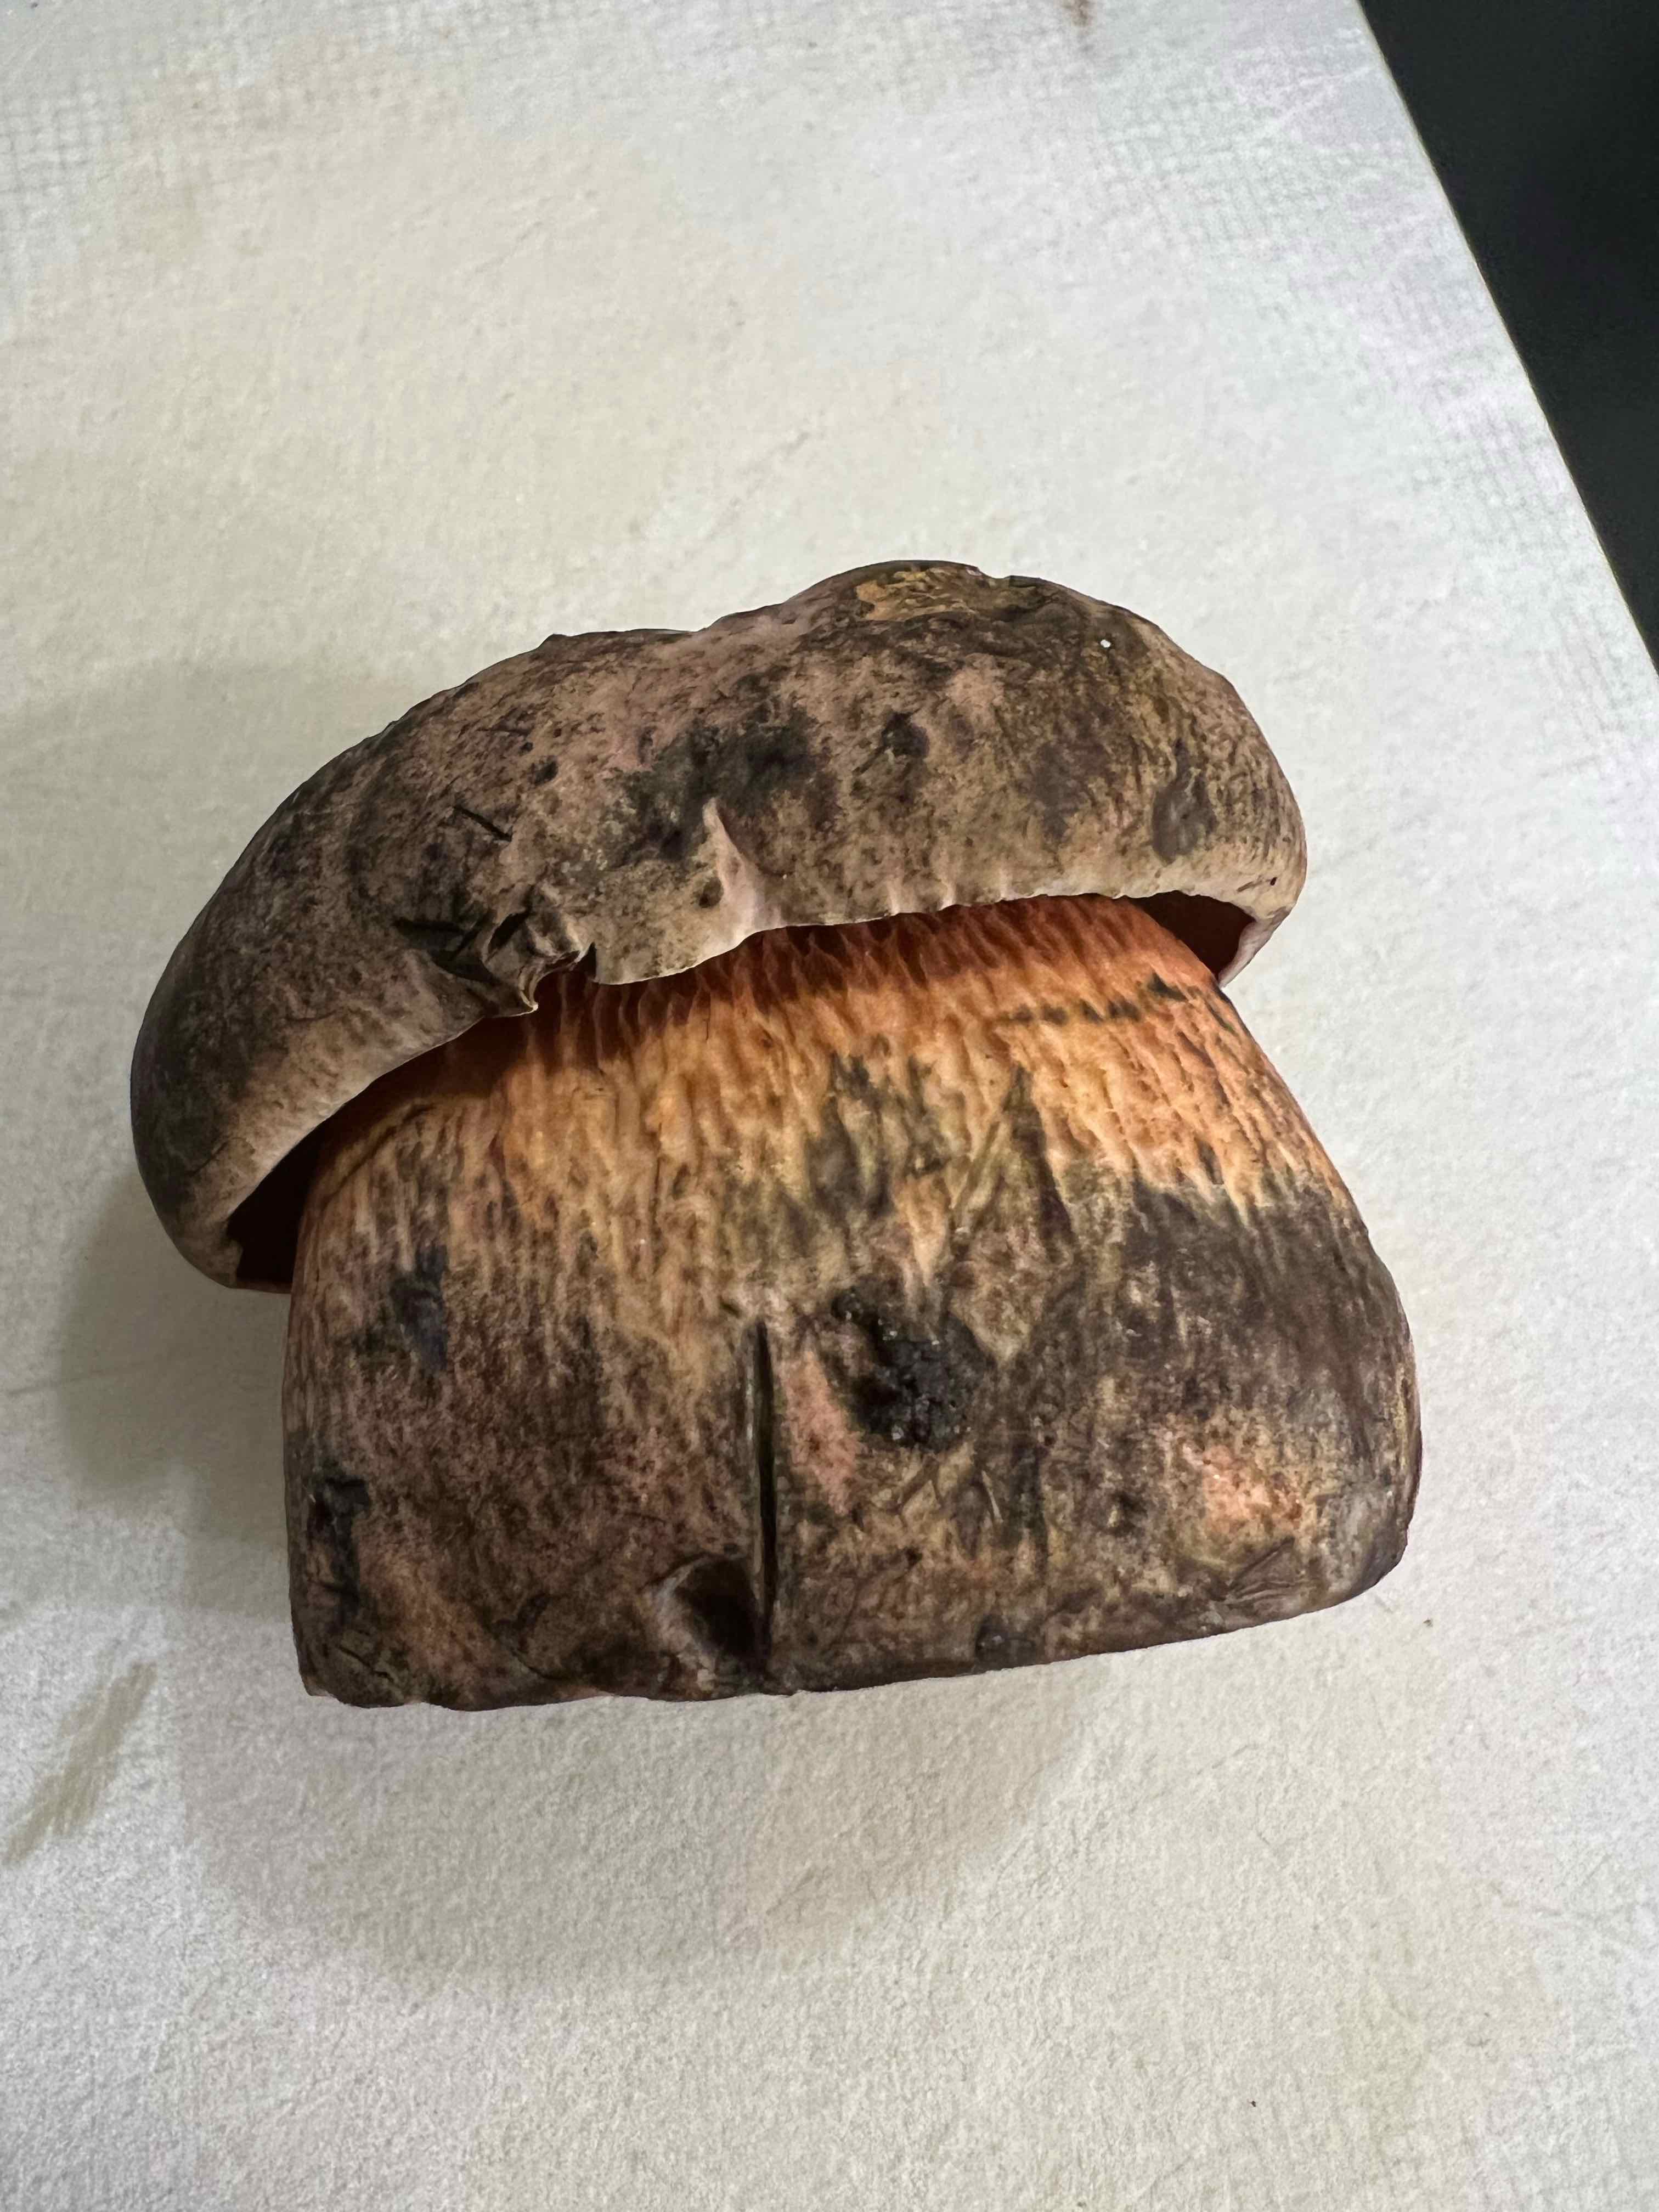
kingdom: Fungi
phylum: Basidiomycota
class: Agaricomycetes
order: Boletales
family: Boletaceae
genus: Suillellus
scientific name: Suillellus luridus
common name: netstokket indigorørhat
